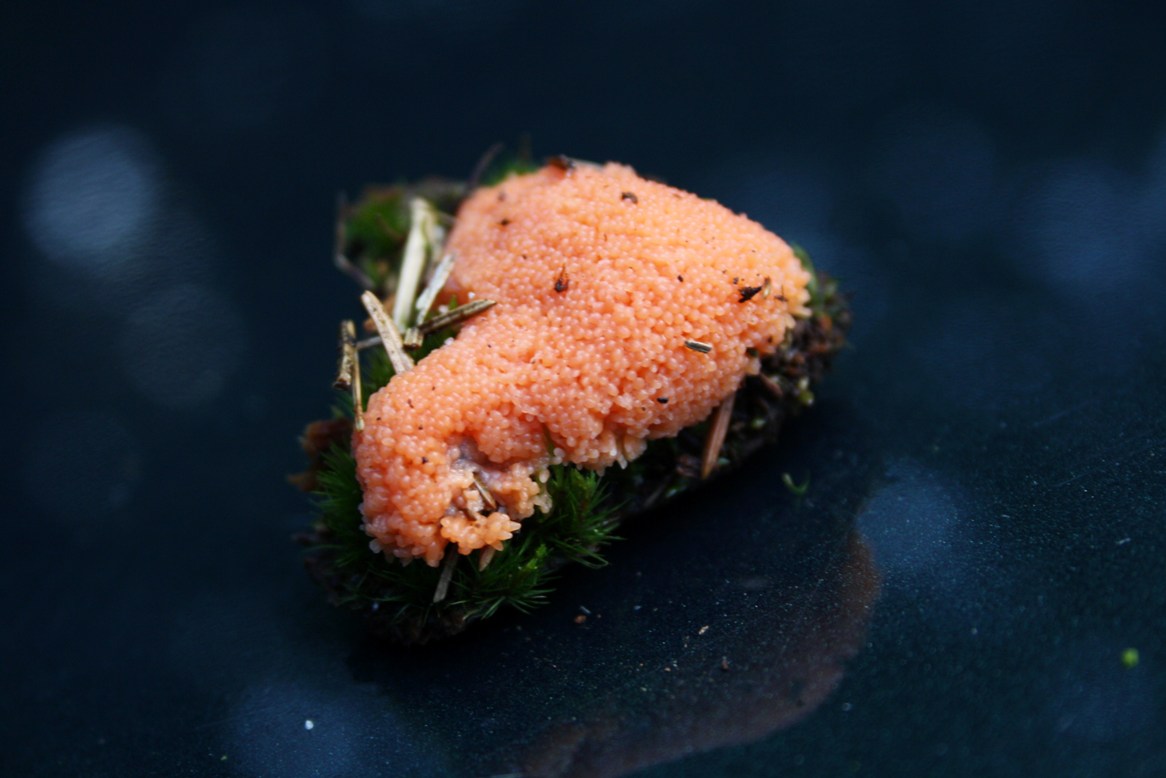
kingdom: Protozoa
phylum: Mycetozoa
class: Myxomycetes
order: Cribrariales
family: Tubiferaceae
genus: Tubifera
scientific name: Tubifera ferruginosa
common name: kanel-støvrør
